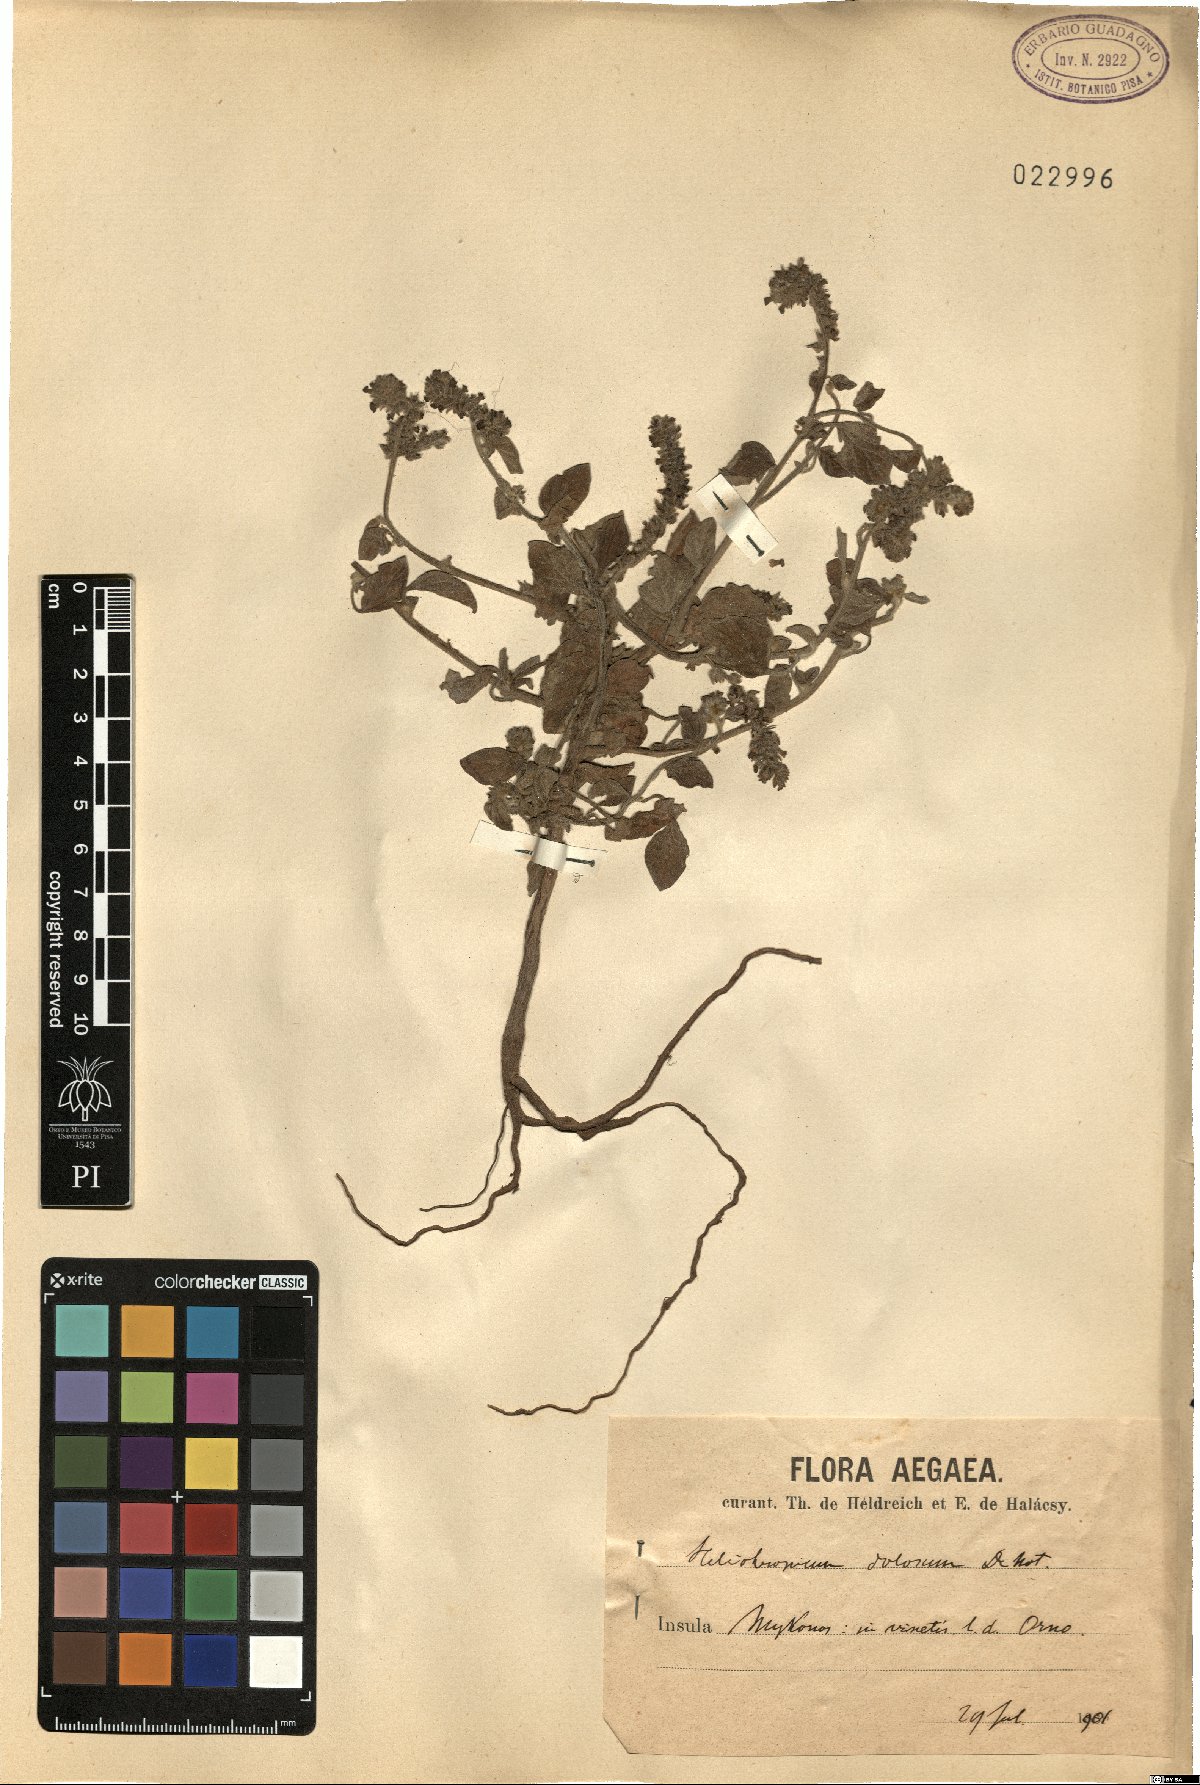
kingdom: Plantae
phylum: Tracheophyta
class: Magnoliopsida
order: Boraginales
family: Heliotropiaceae
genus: Heliotropium
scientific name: Heliotropium dolosum
